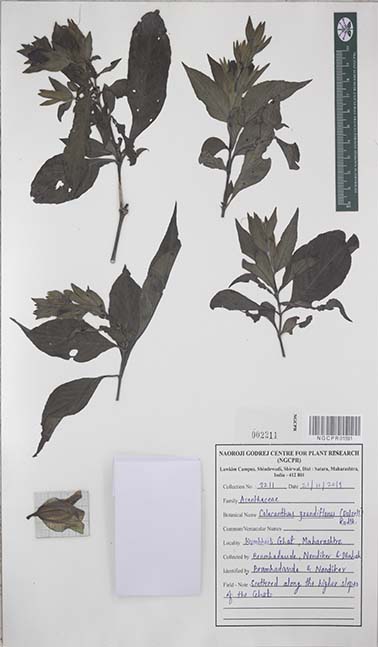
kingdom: Plantae
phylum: Tracheophyta
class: Magnoliopsida
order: Lamiales
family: Acanthaceae
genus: Calacanthus
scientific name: Calacanthus grandiflorus
